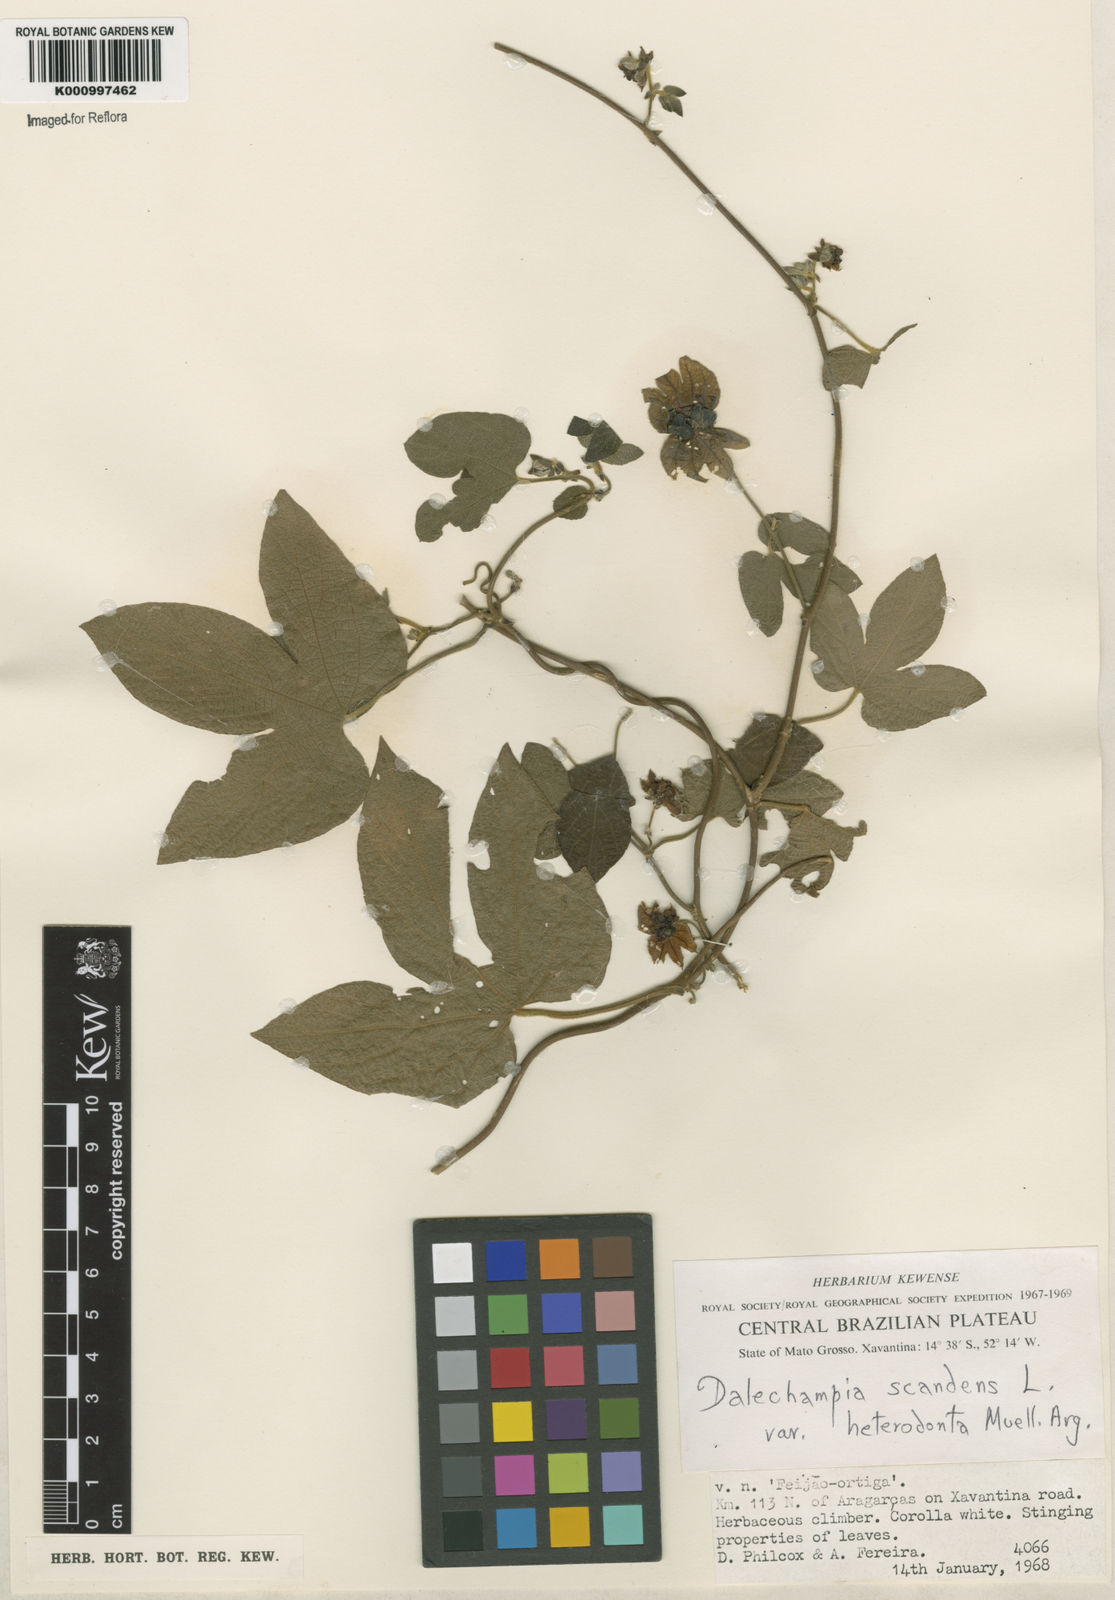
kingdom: Plantae
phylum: Tracheophyta
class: Magnoliopsida
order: Malpighiales
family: Euphorbiaceae
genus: Dalechampia
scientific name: Dalechampia scandens
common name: Spurgecreeper
